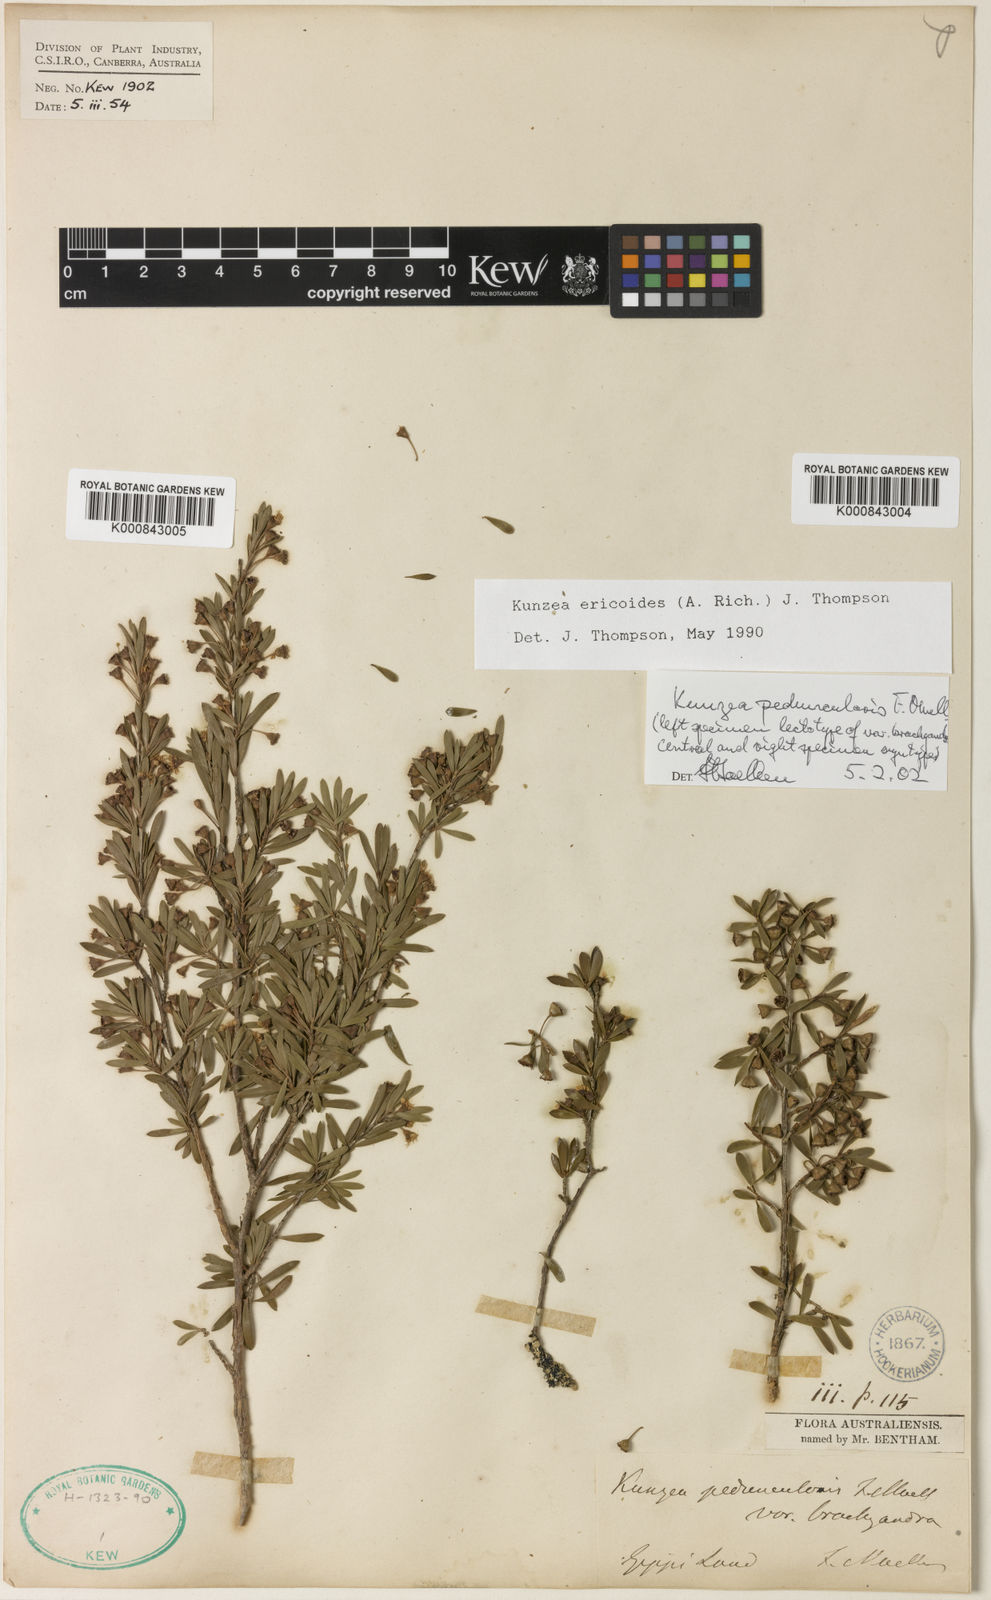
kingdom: Plantae
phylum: Tracheophyta
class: Magnoliopsida
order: Myrtales
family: Myrtaceae
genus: Kunzea
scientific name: Kunzea ericoides
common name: Burgan
